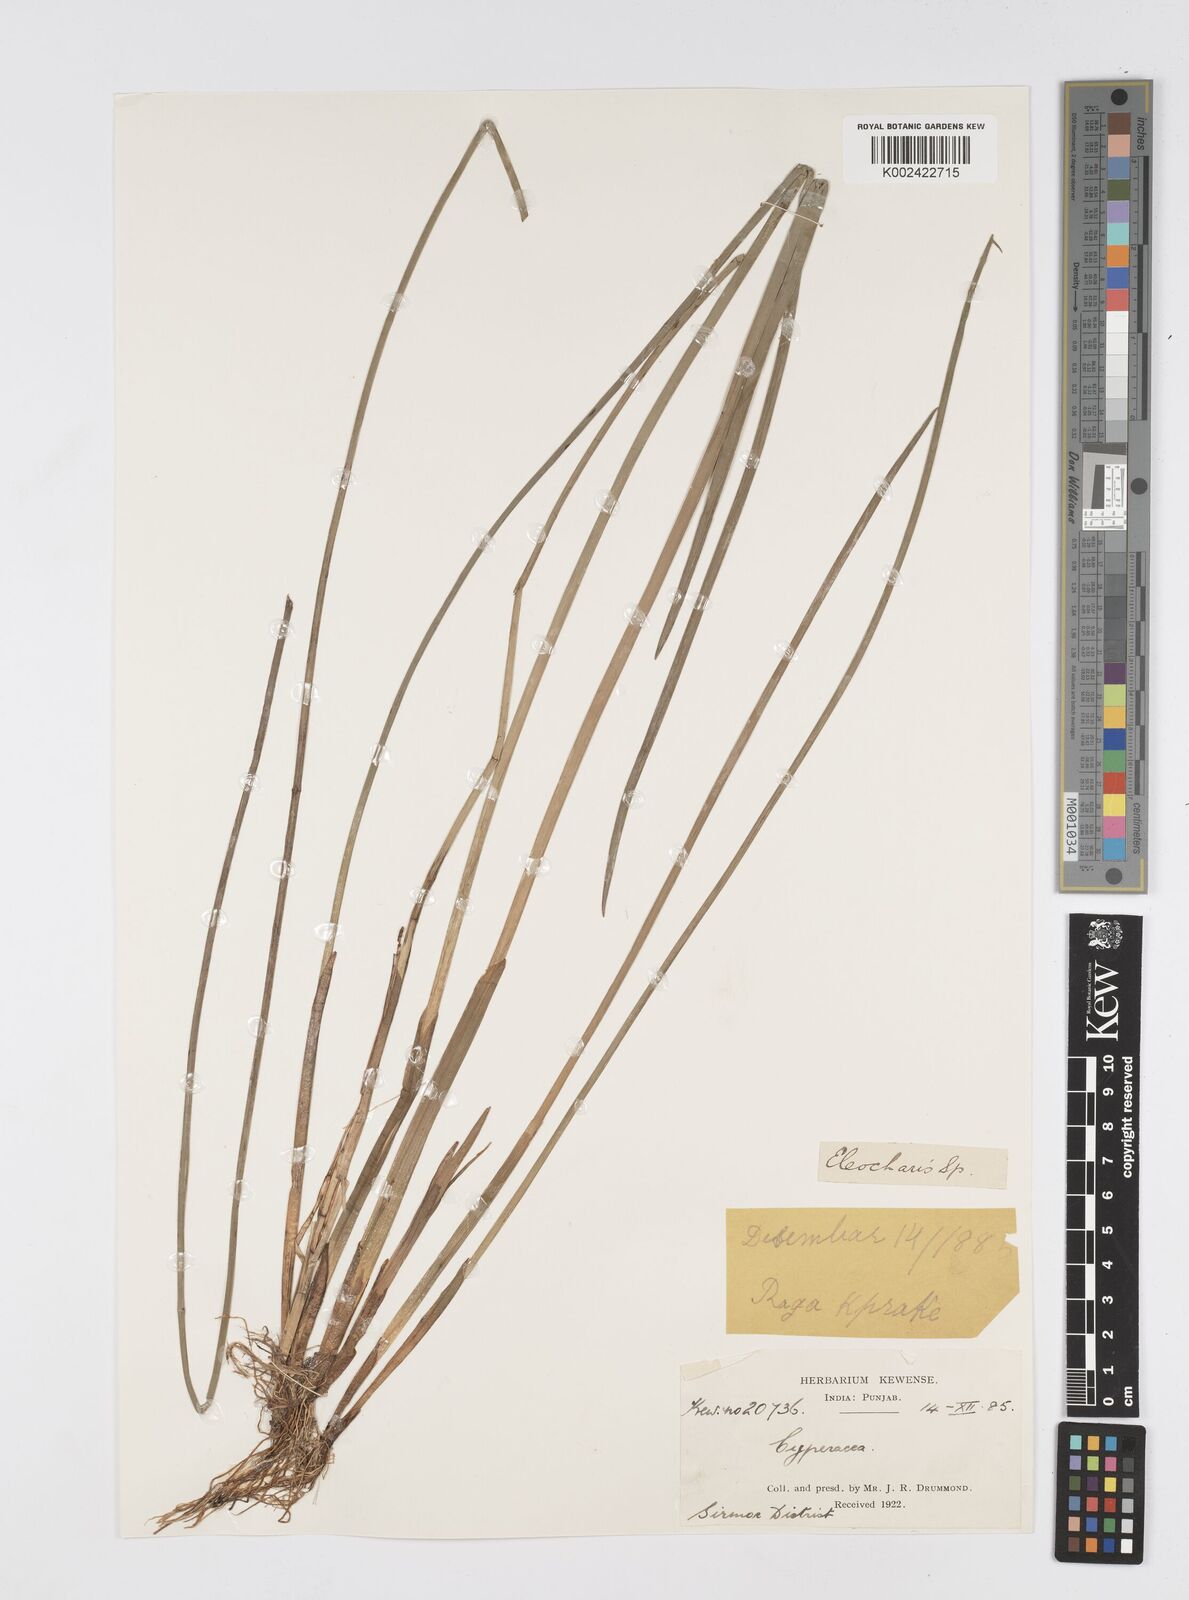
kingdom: Plantae
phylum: Tracheophyta
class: Liliopsida
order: Poales
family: Cyperaceae
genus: Eleocharis
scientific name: Eleocharis
